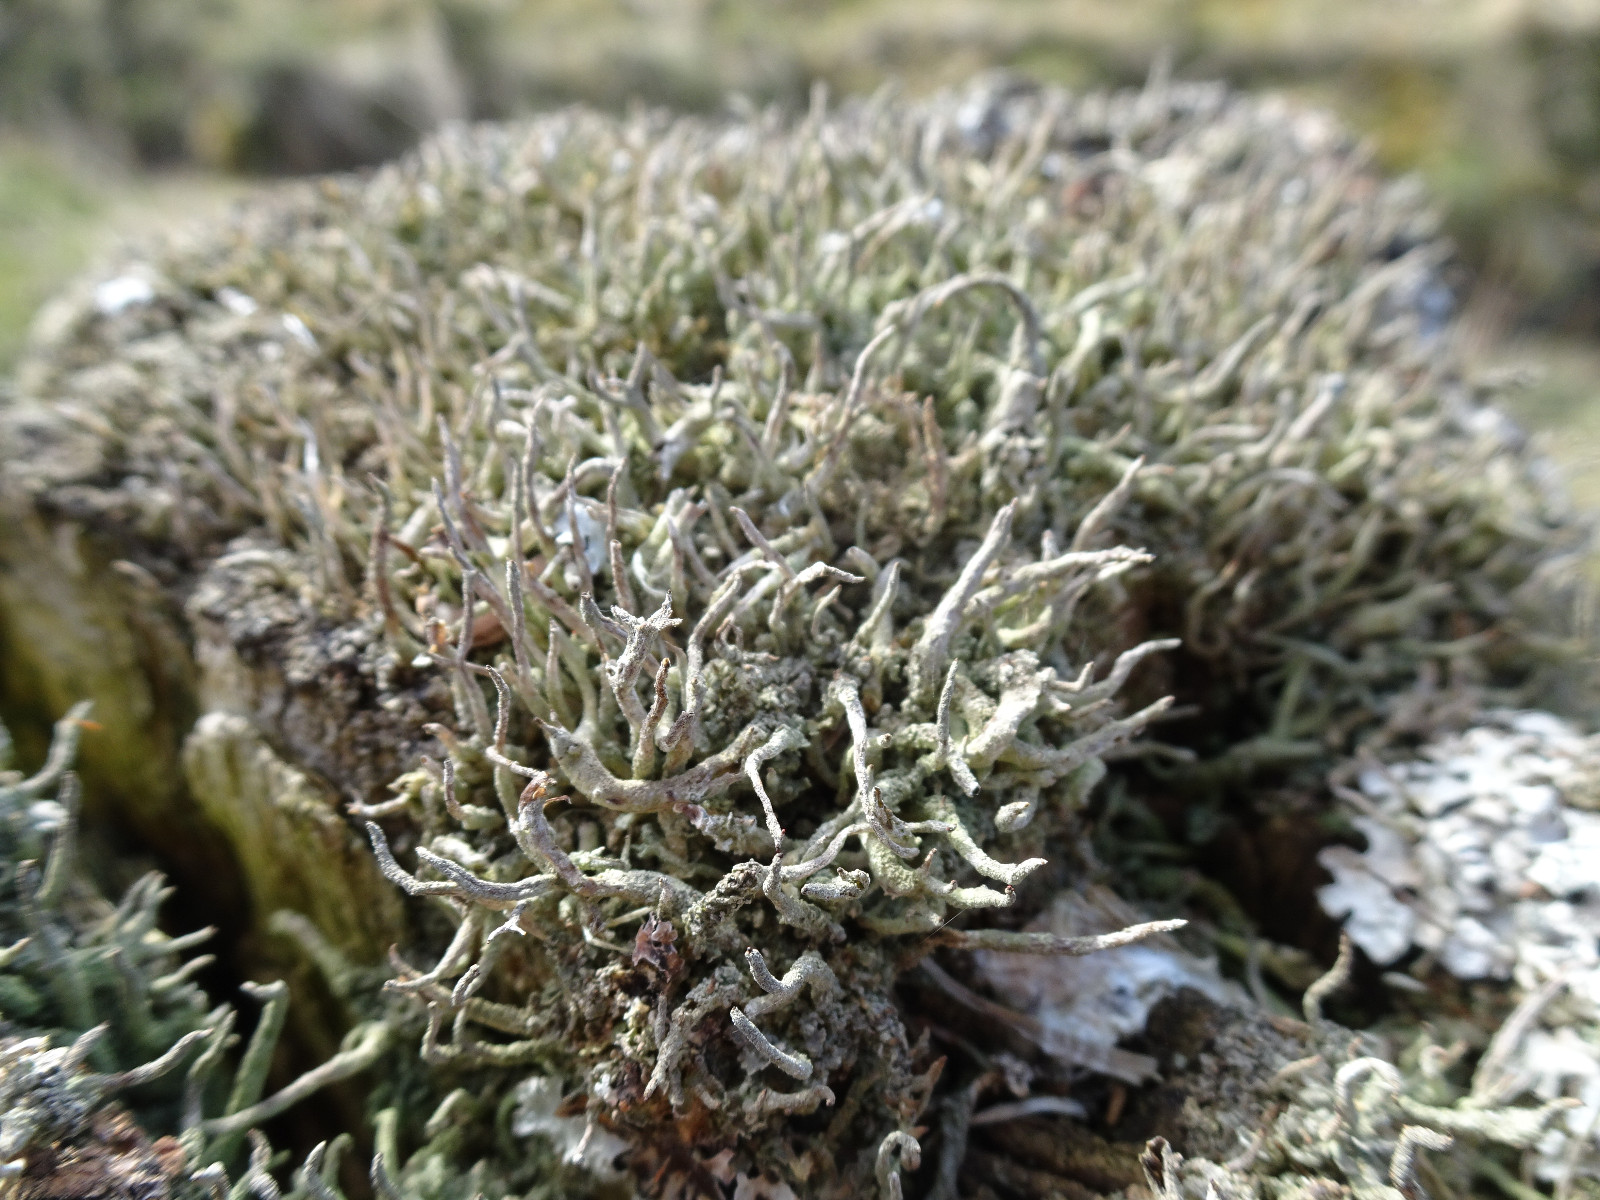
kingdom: Fungi
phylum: Ascomycota
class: Lecanoromycetes
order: Lecanorales
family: Cladoniaceae
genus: Cladonia
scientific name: Cladonia coniocraea
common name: træfods-bægerlav
